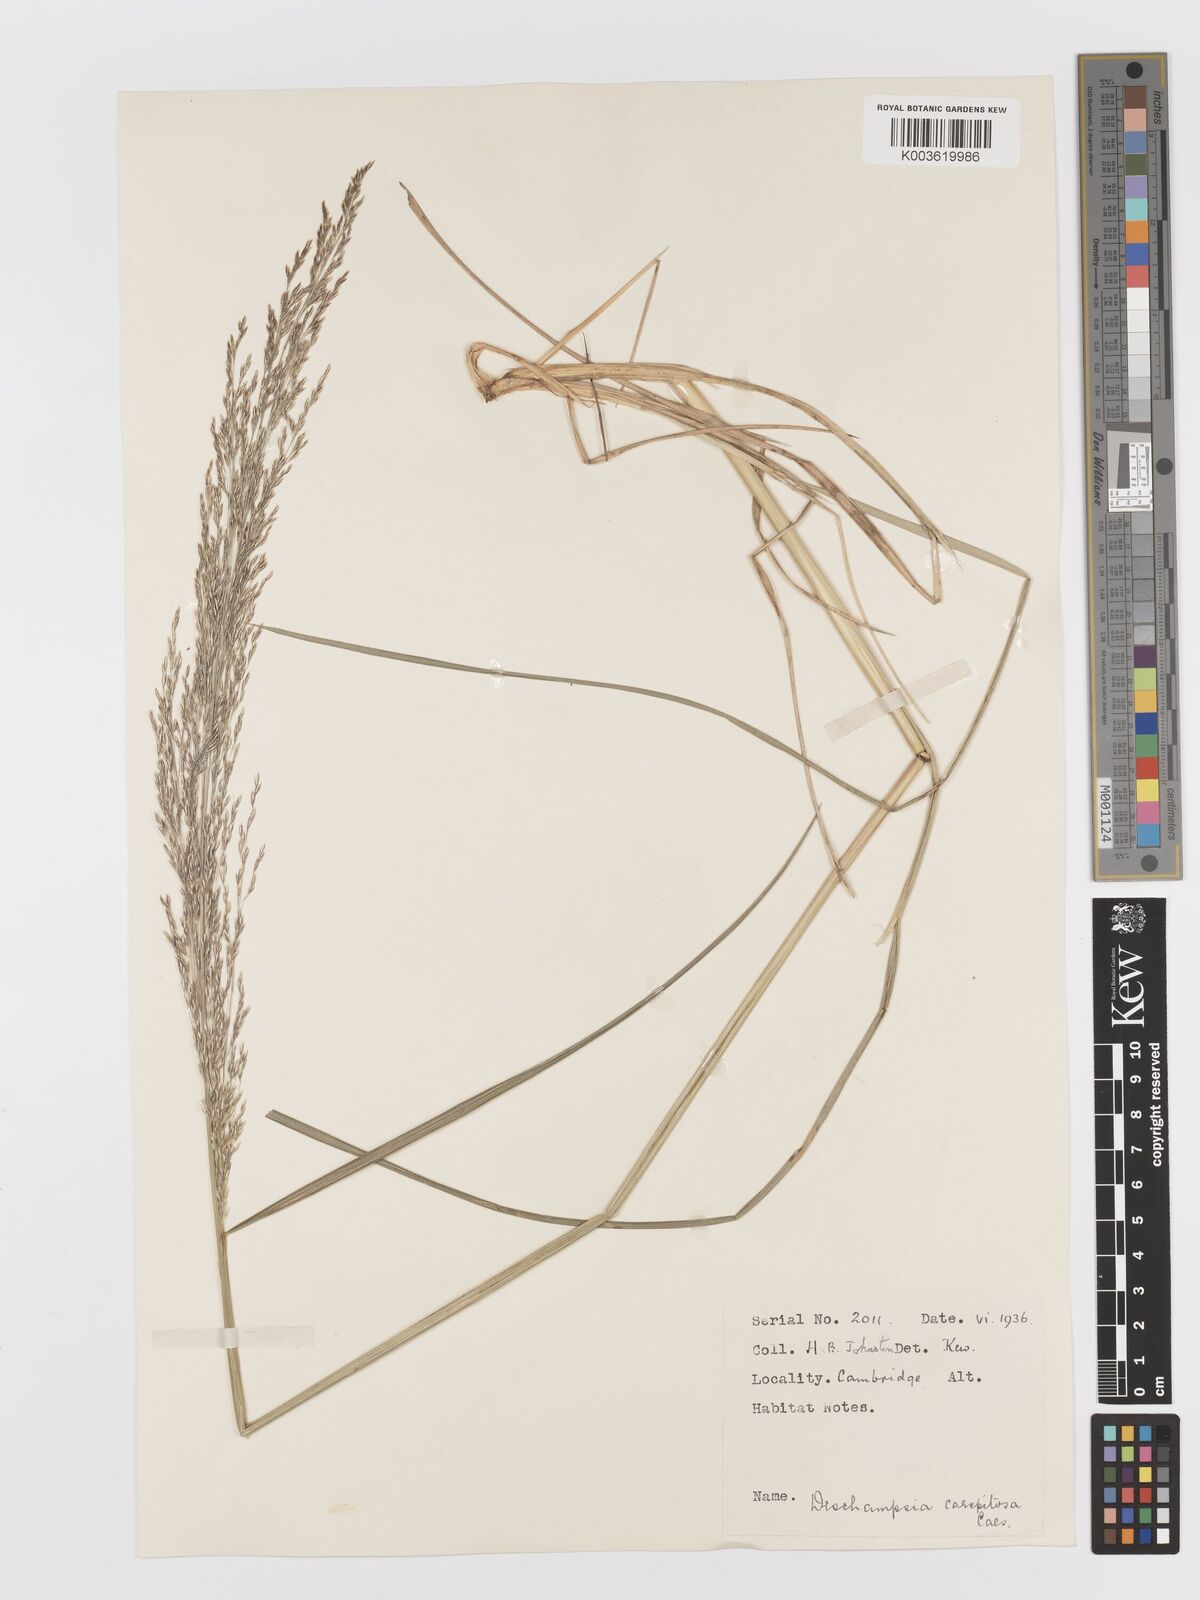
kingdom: Plantae
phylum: Tracheophyta
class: Liliopsida
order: Poales
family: Poaceae
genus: Deschampsia
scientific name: Deschampsia cespitosa
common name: Tufted hair-grass
